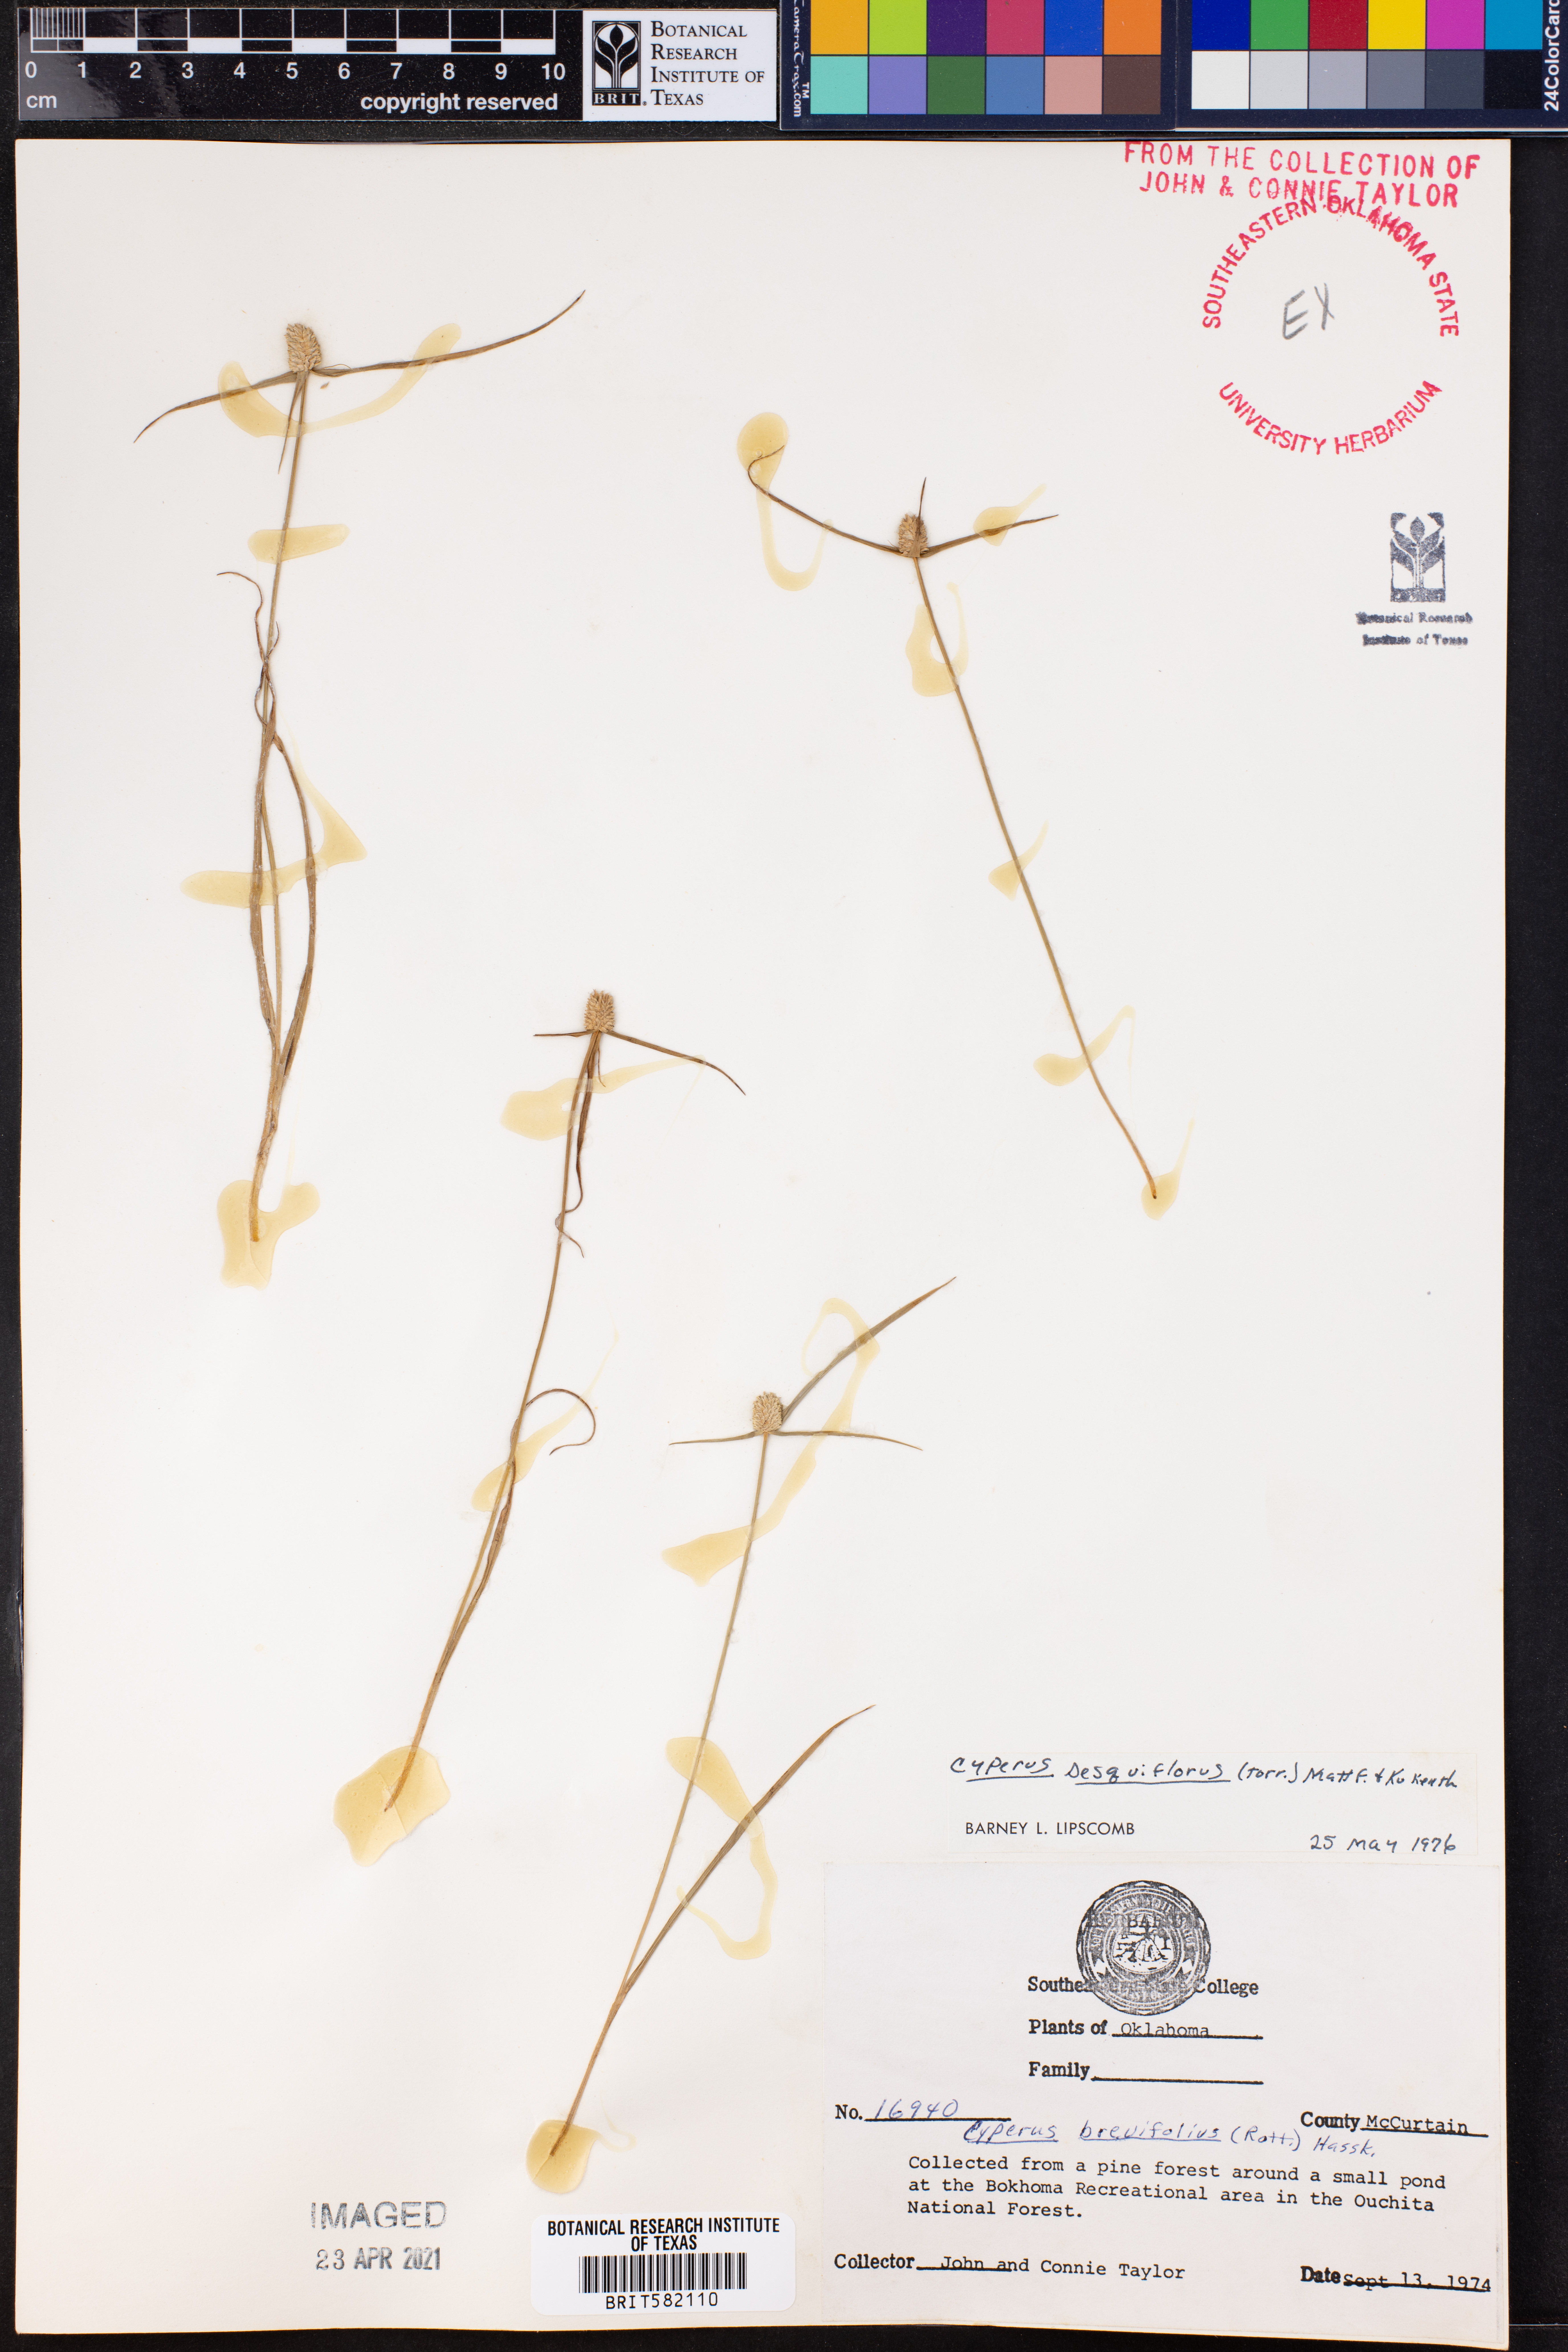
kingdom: Plantae
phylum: Tracheophyta
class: Liliopsida
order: Poales
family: Cyperaceae
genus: Cyperus
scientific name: Cyperus sesquiflorus
